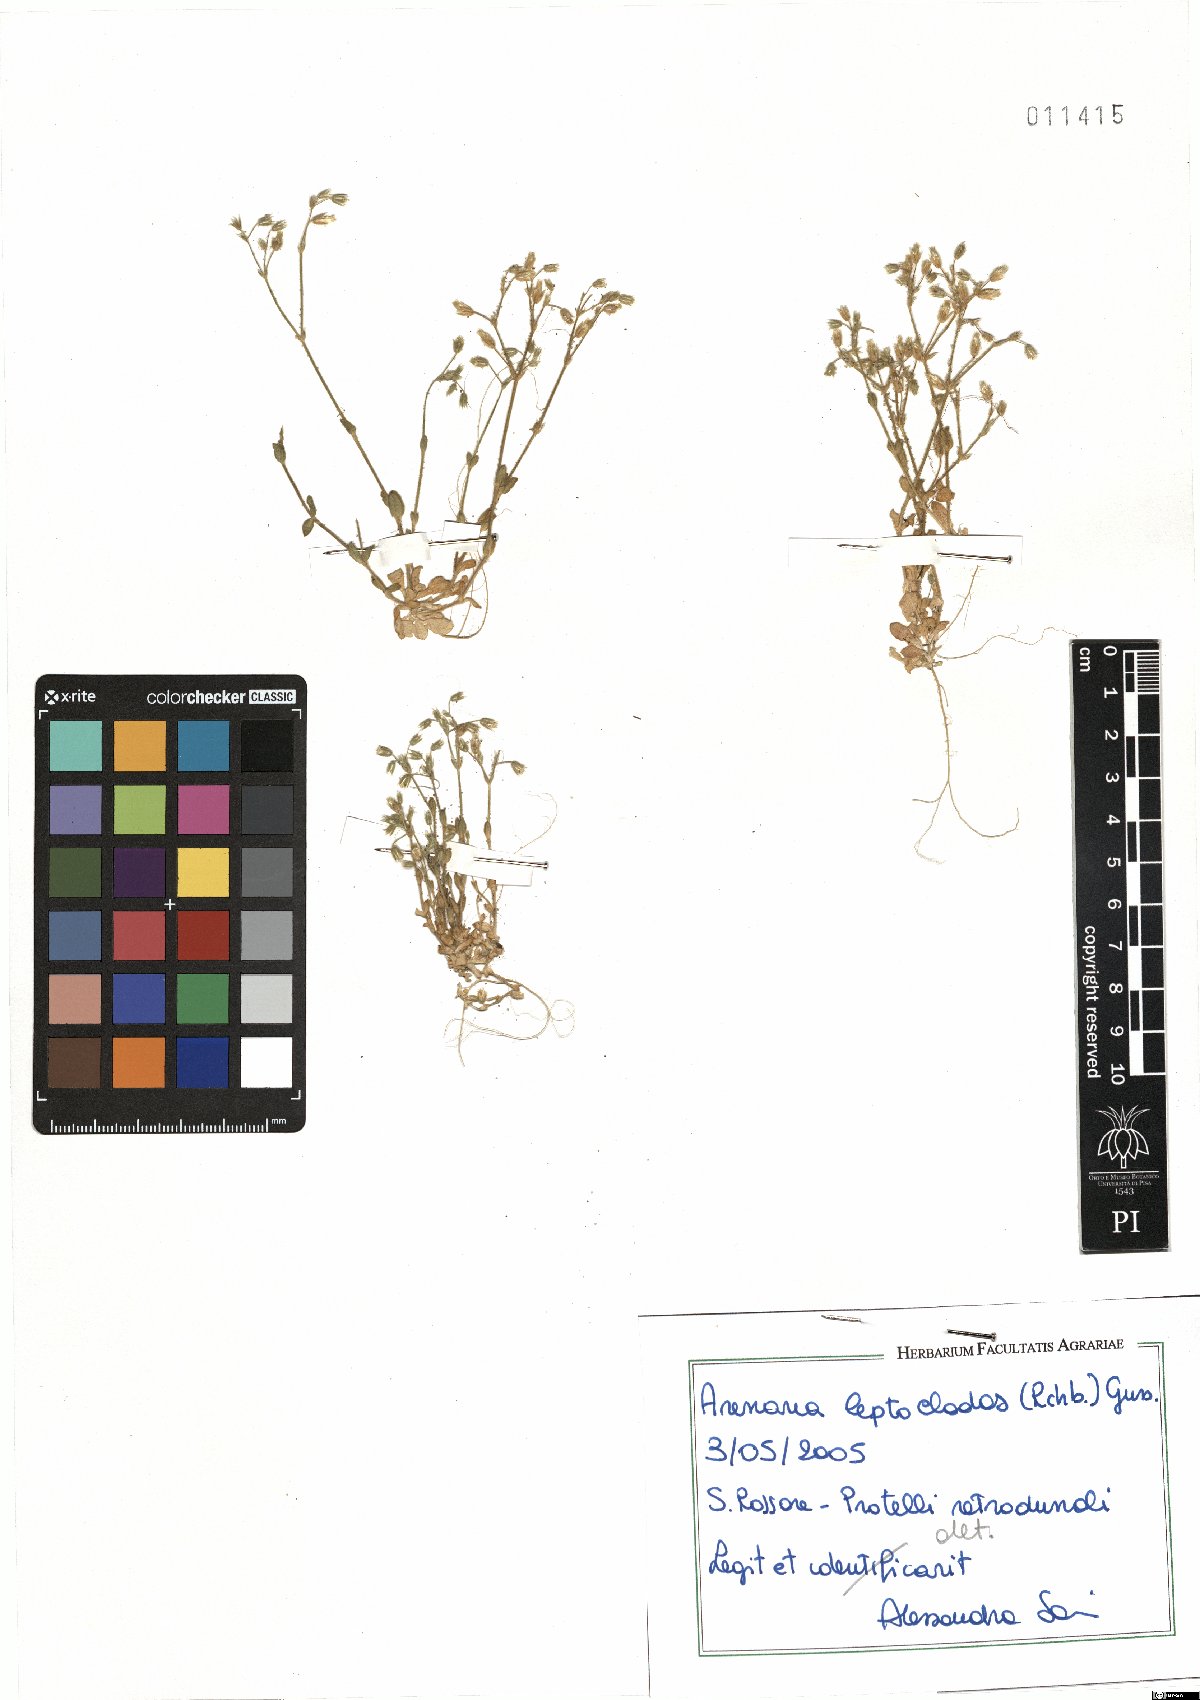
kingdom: Plantae
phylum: Tracheophyta
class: Magnoliopsida
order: Caryophyllales
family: Caryophyllaceae
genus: Arenaria
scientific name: Arenaria leptoclados
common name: Thyme-leaved sandwort
